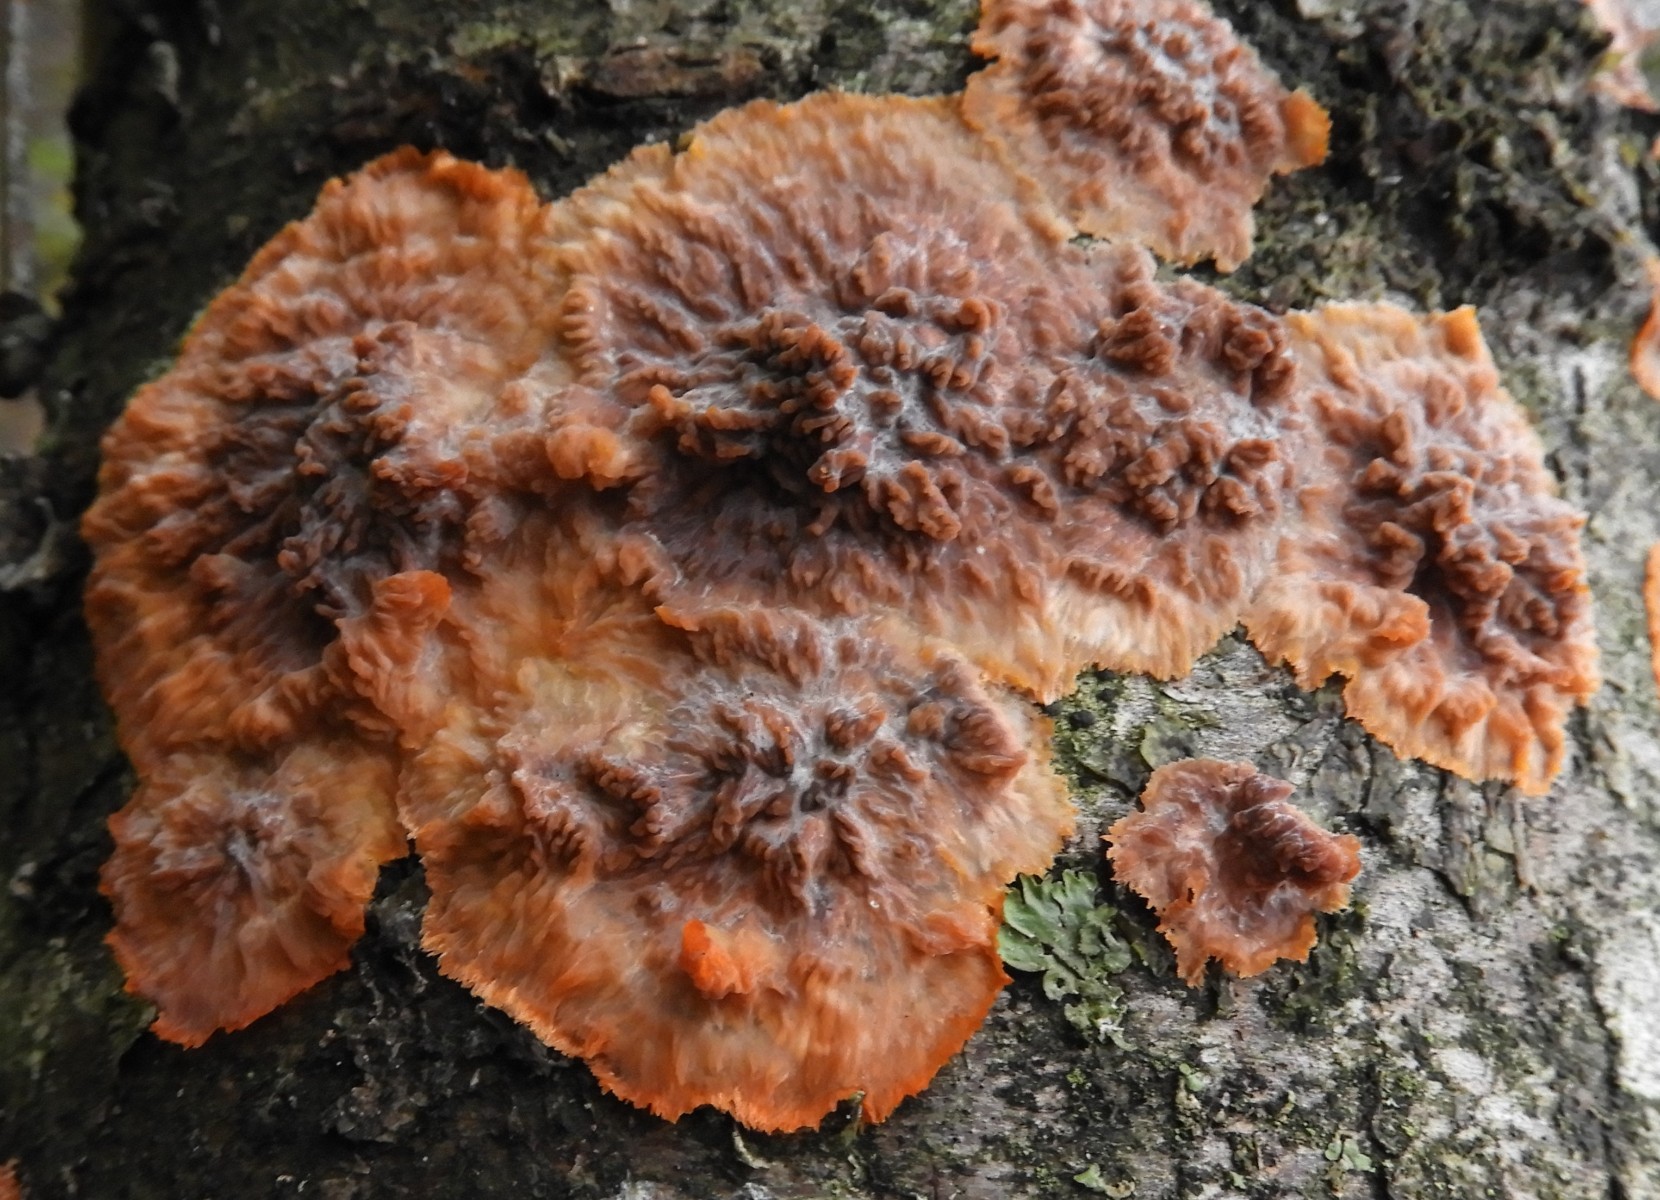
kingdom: Fungi
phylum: Basidiomycota
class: Agaricomycetes
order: Polyporales
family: Meruliaceae
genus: Phlebia
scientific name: Phlebia radiata
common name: stråle-åresvamp
